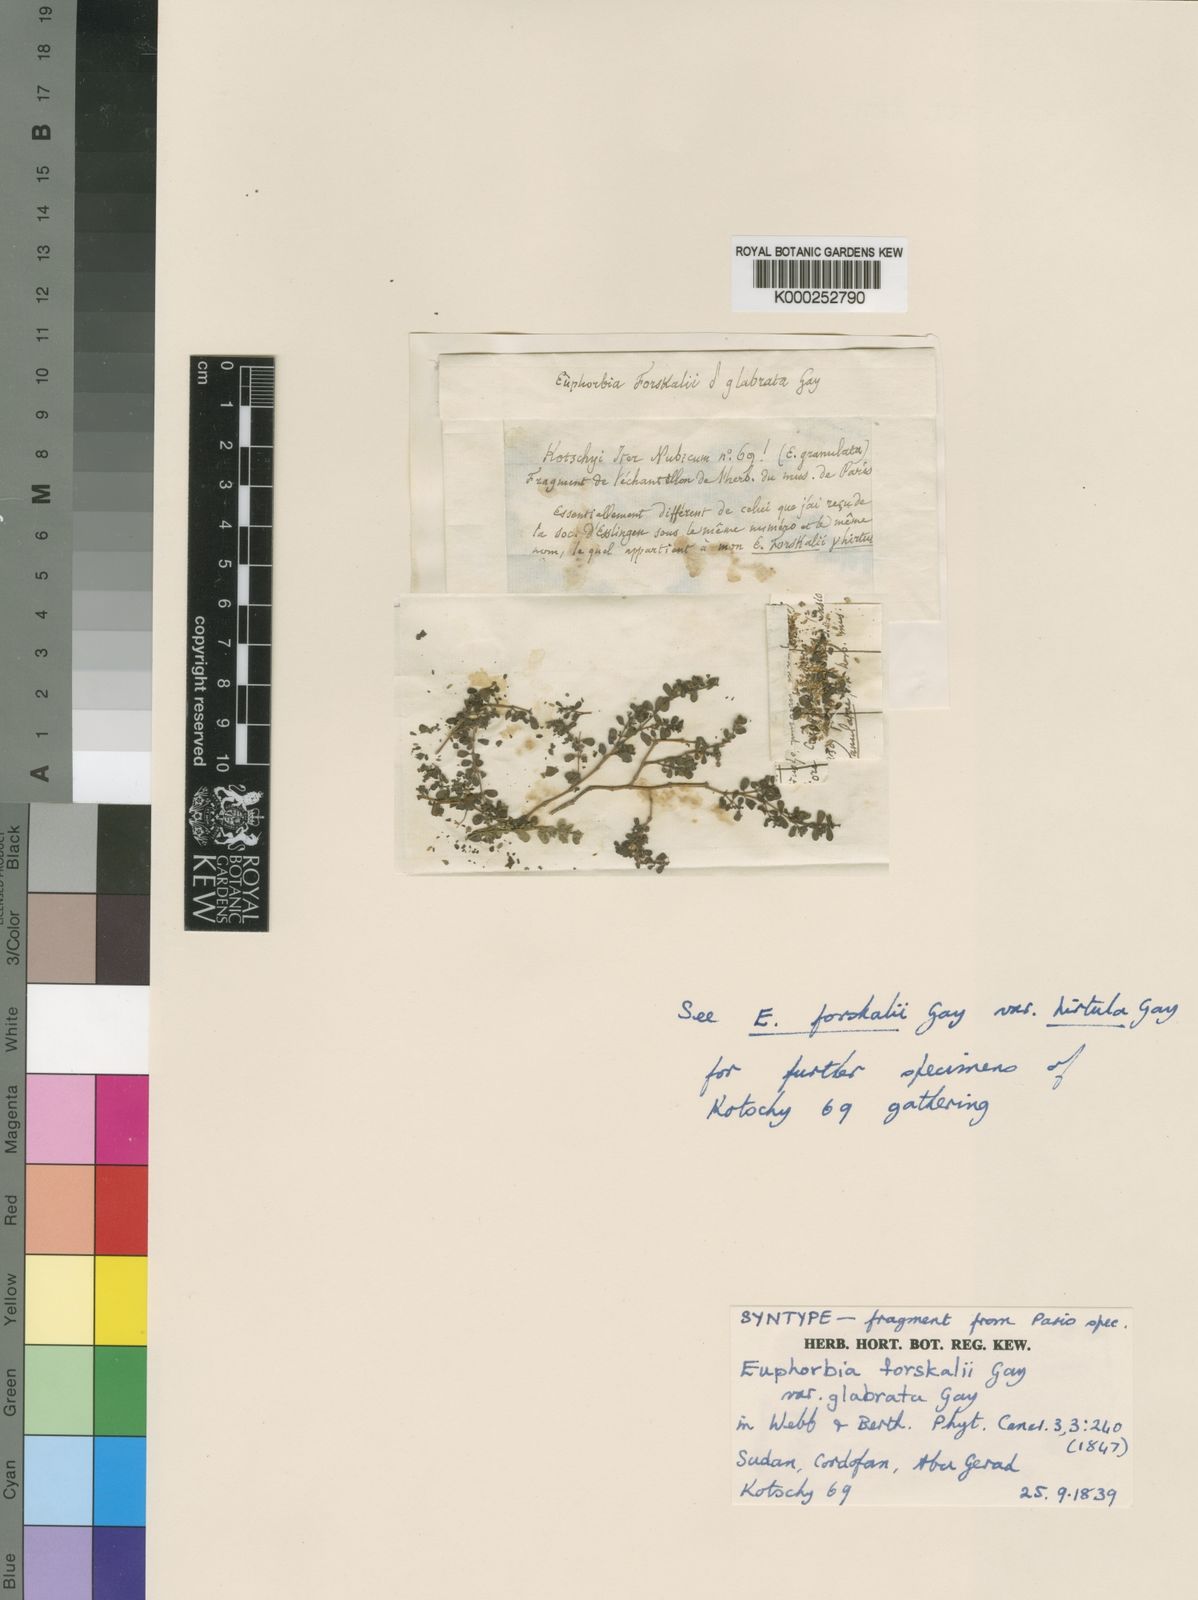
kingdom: Plantae
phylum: Tracheophyta
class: Magnoliopsida
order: Malpighiales
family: Euphorbiaceae
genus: Euphorbia
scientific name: Euphorbia granulata
